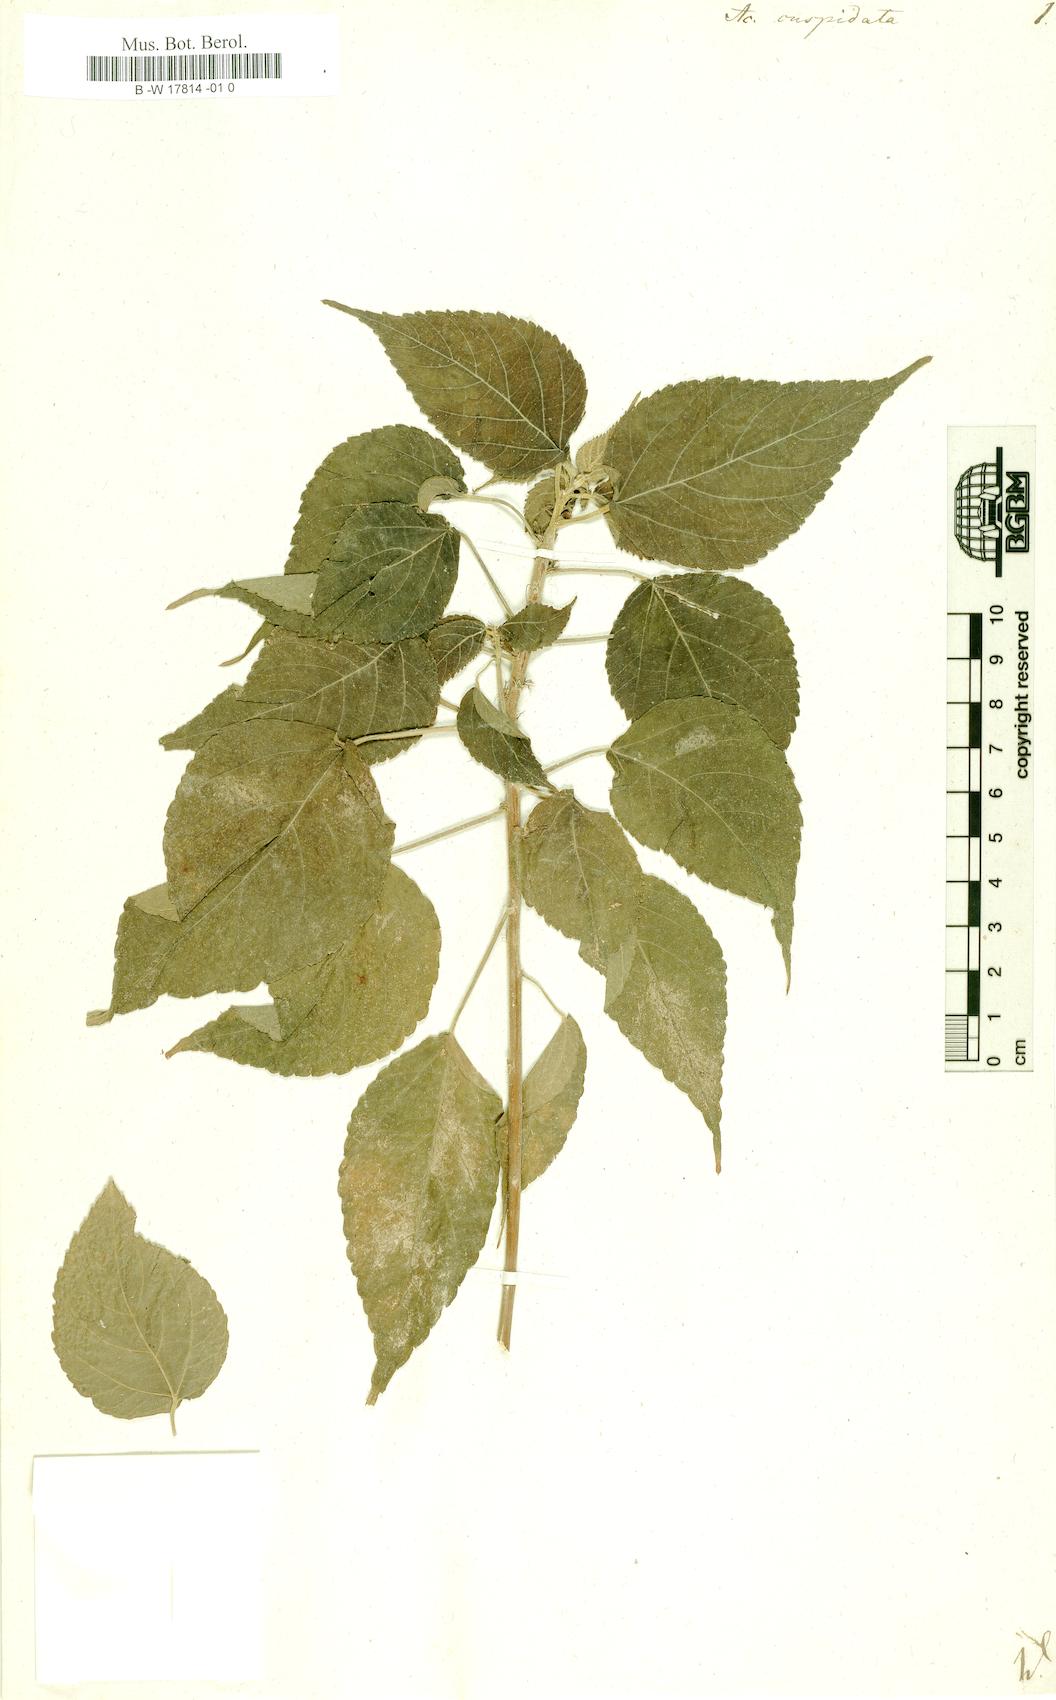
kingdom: Plantae
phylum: Tracheophyta
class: Magnoliopsida
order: Malpighiales
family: Euphorbiaceae
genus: Acalypha
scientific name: Acalypha cuspidata
